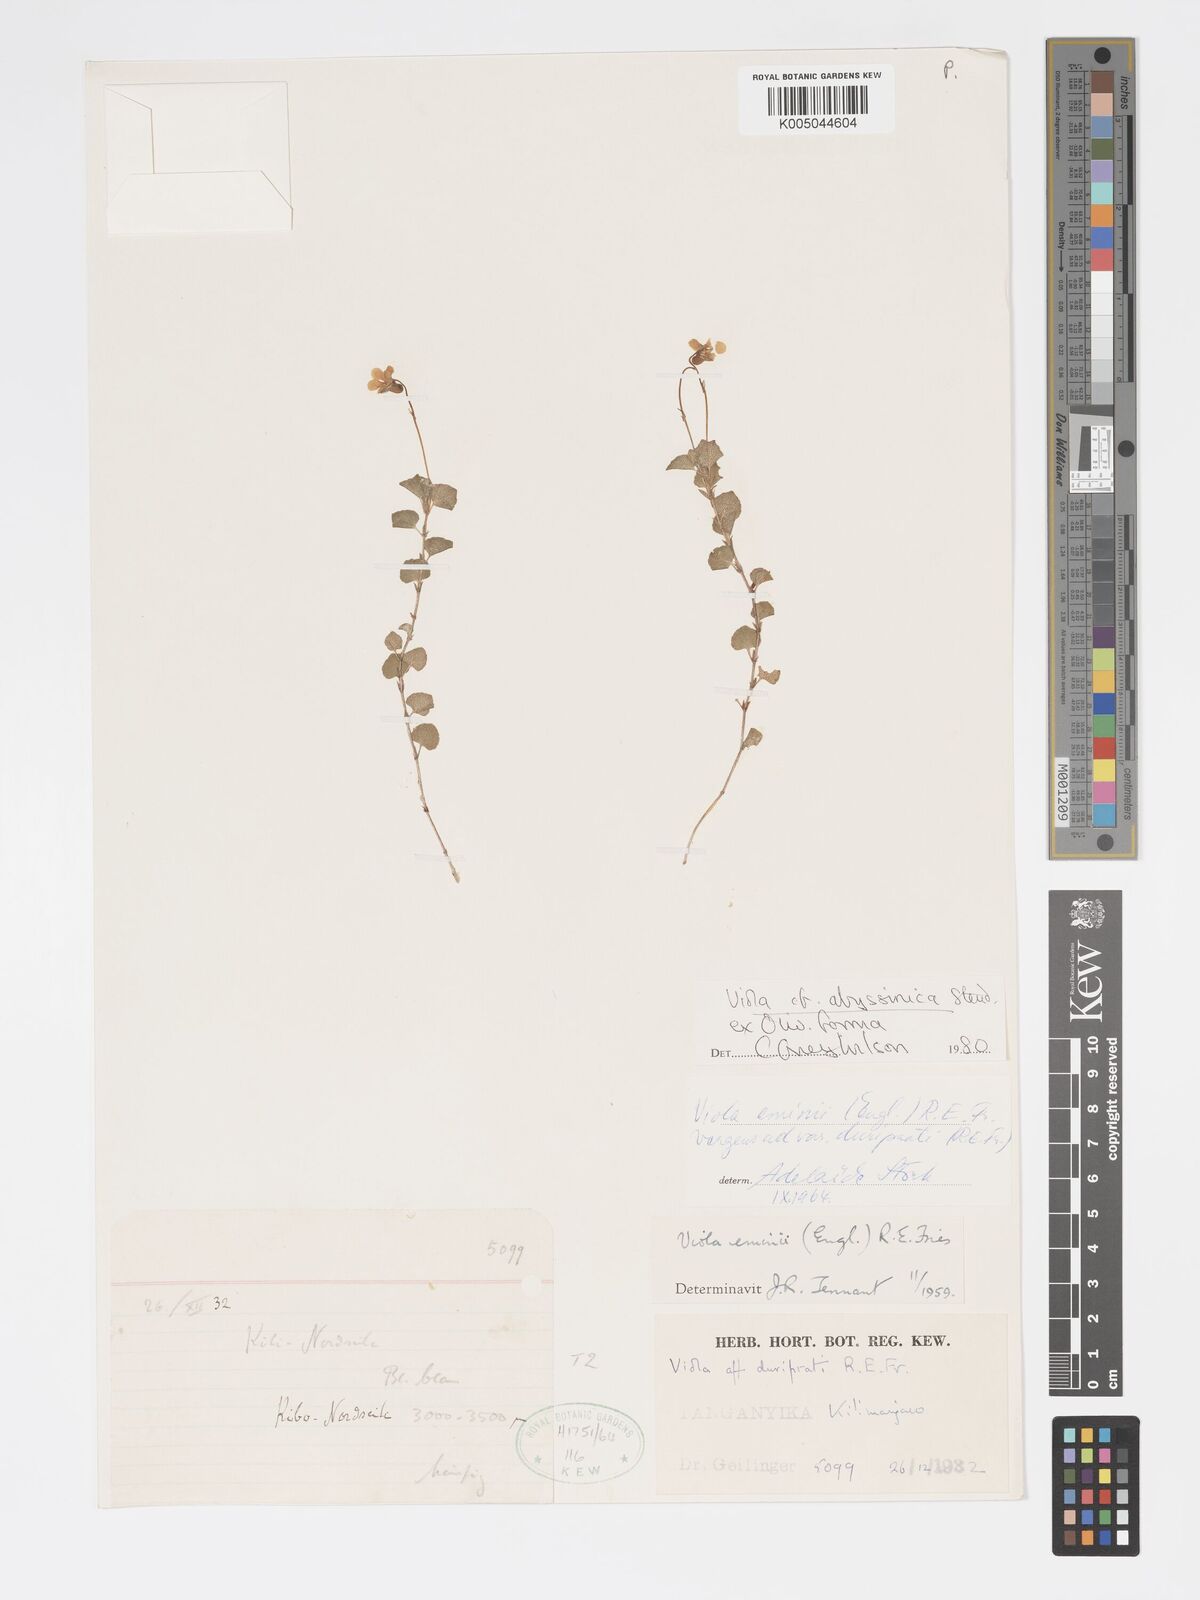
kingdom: Plantae
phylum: Tracheophyta
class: Magnoliopsida
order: Malpighiales
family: Violaceae
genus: Viola
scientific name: Viola abyssinica
